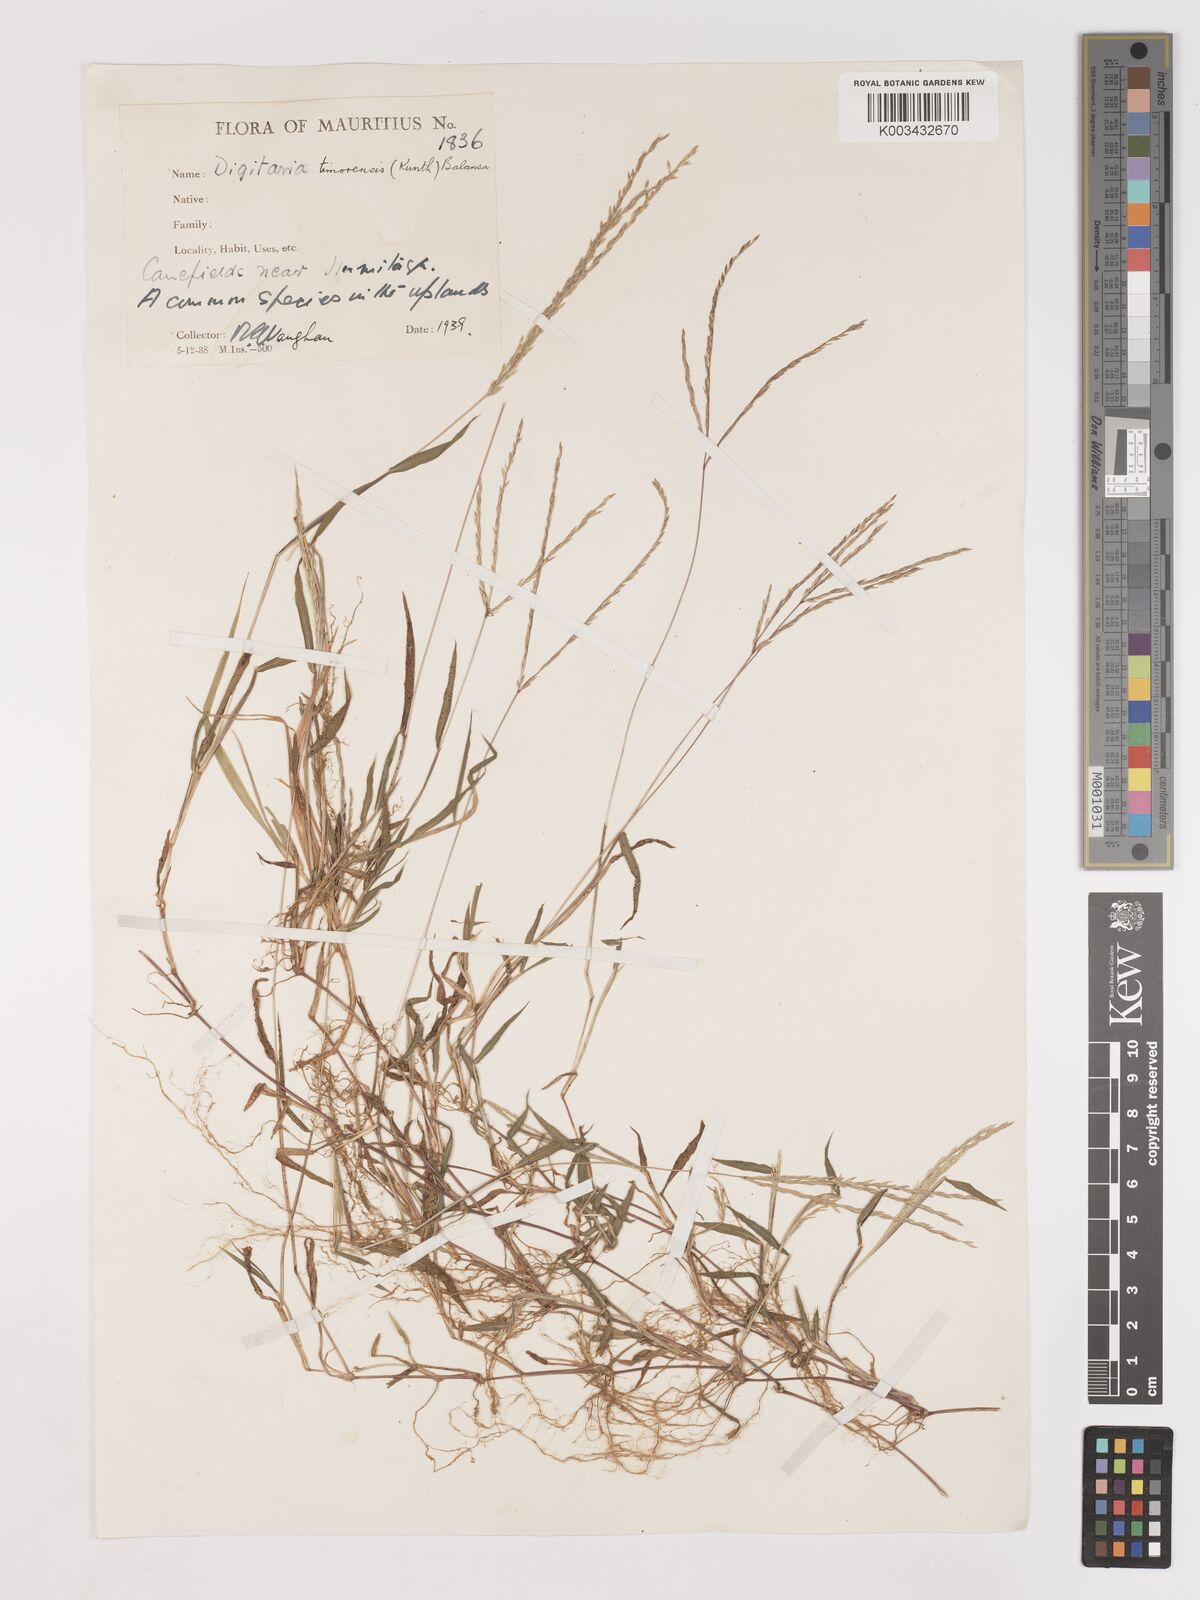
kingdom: Plantae
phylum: Tracheophyta
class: Liliopsida
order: Poales
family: Poaceae
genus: Digitaria
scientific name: Digitaria radicosa
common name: Trailing crabgrass
